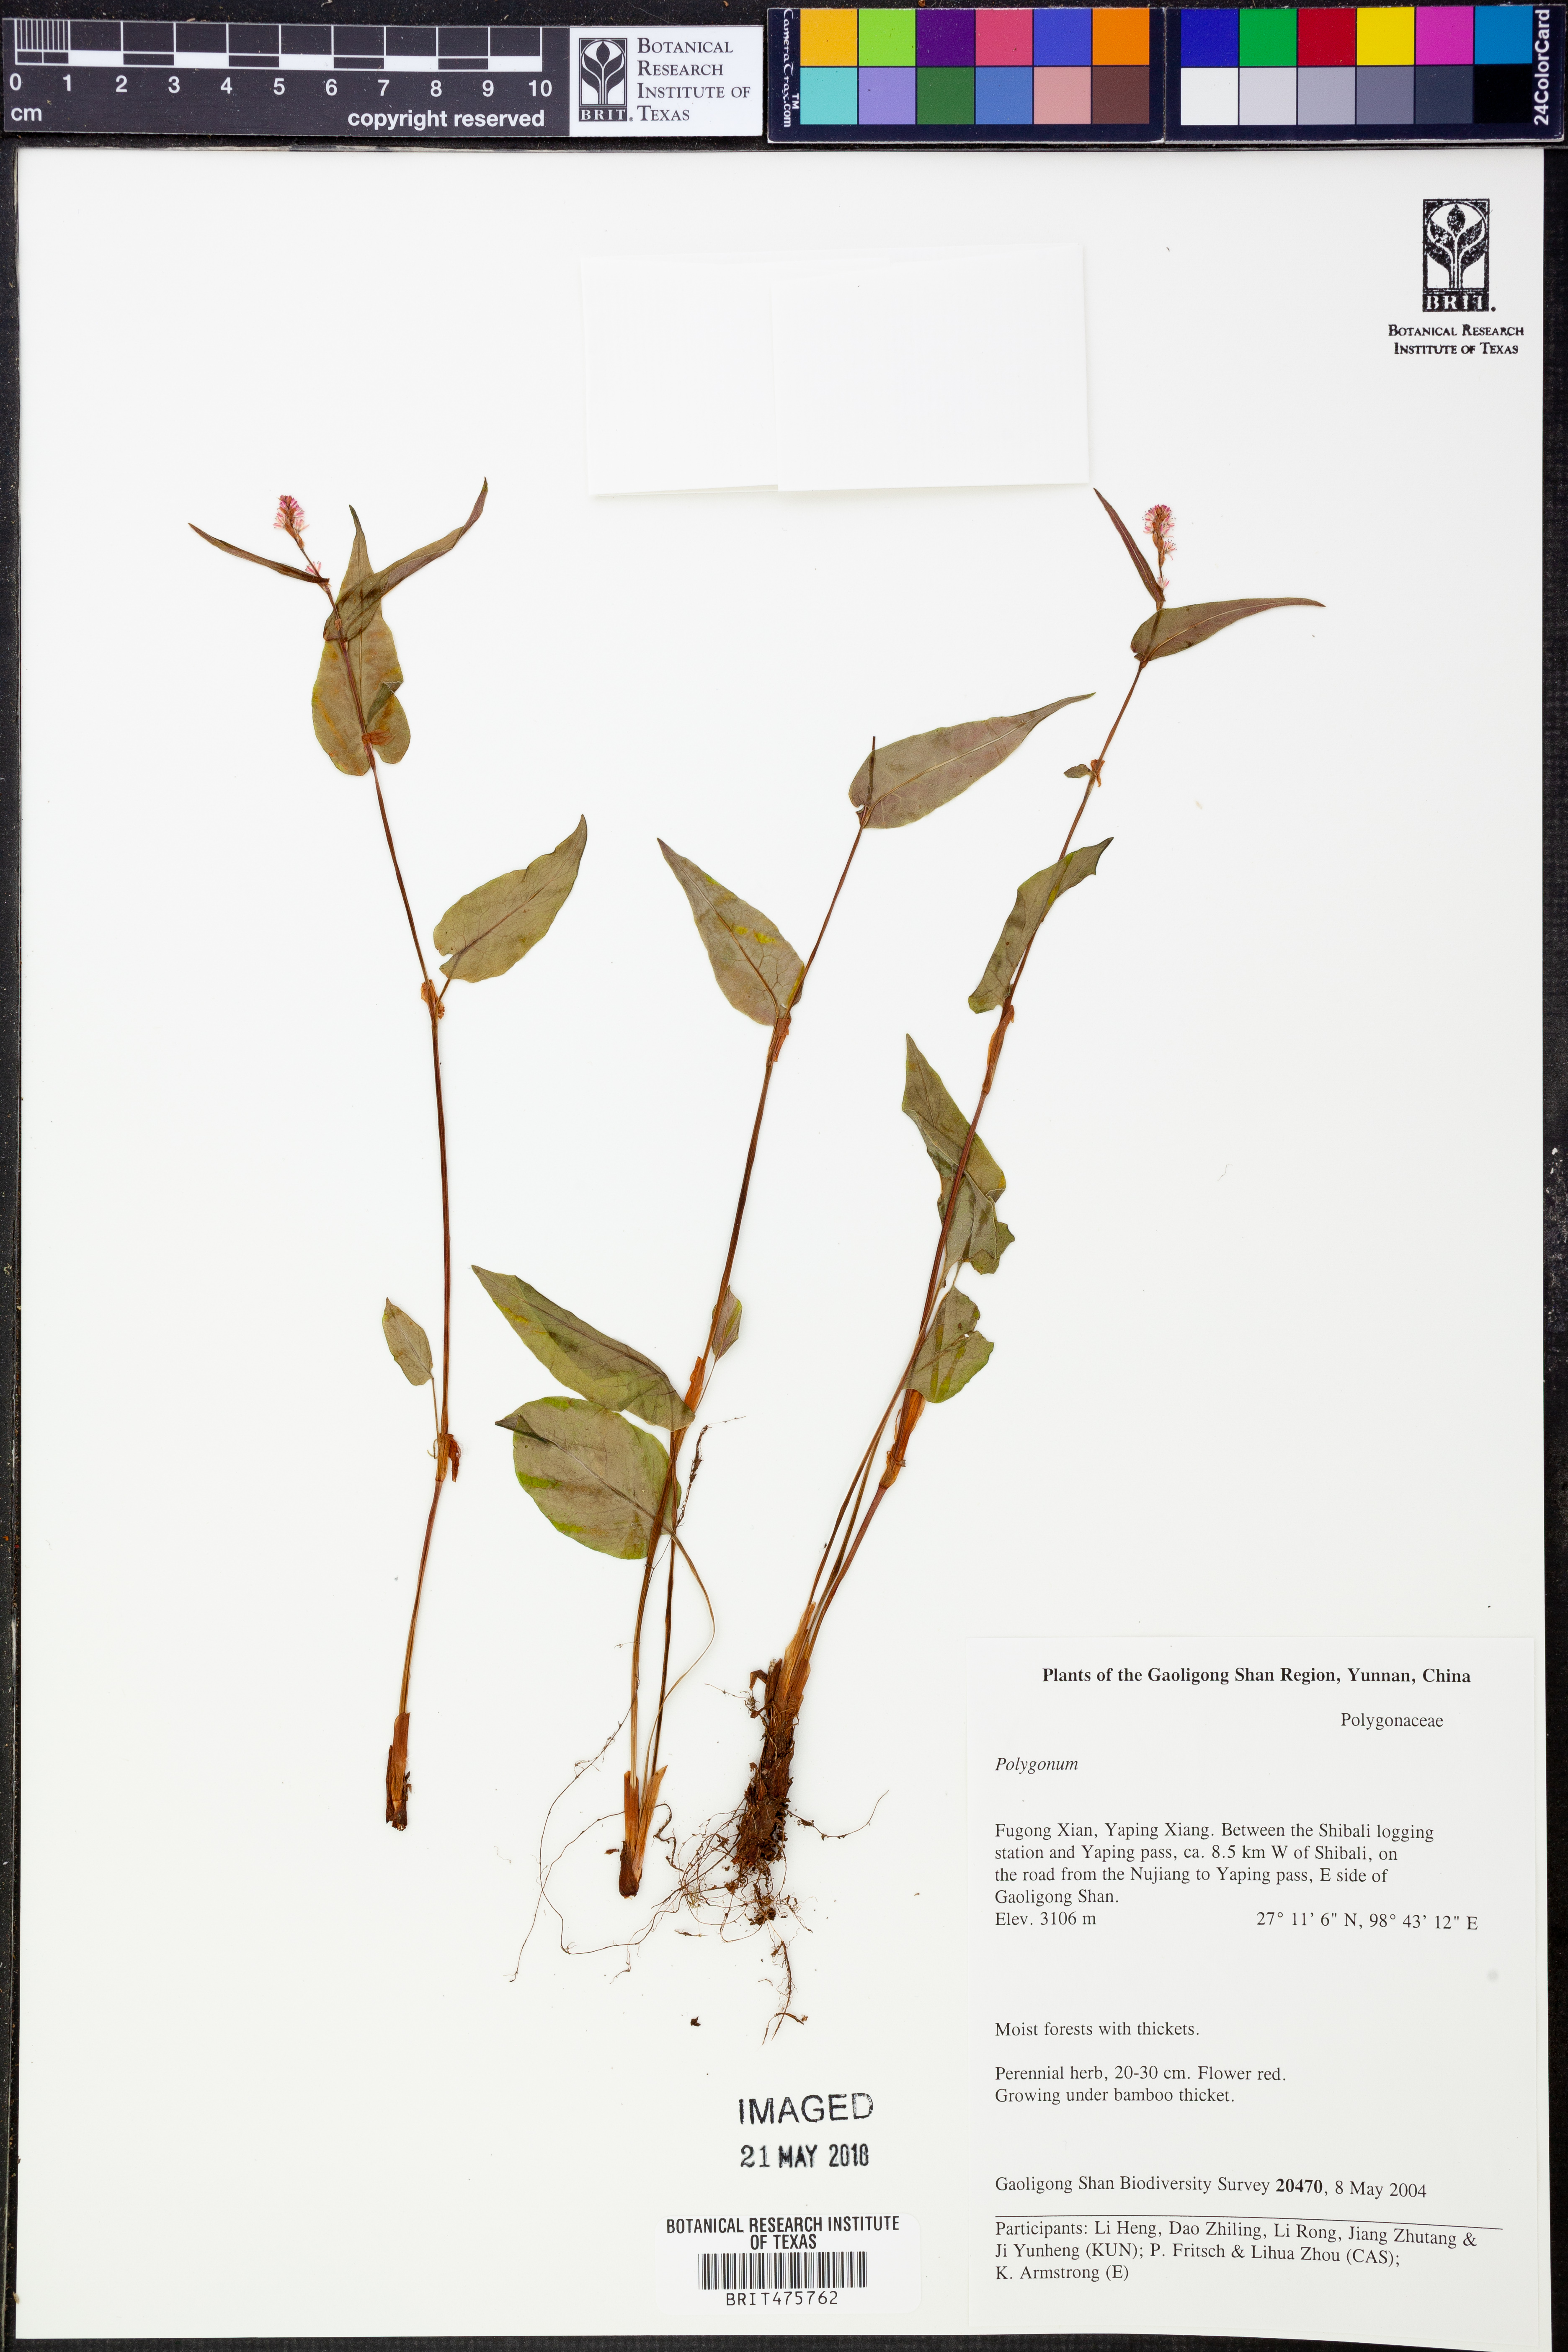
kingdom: Plantae
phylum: Tracheophyta
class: Magnoliopsida
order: Caryophyllales
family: Polygonaceae
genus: Polygonum
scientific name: Polygonum
